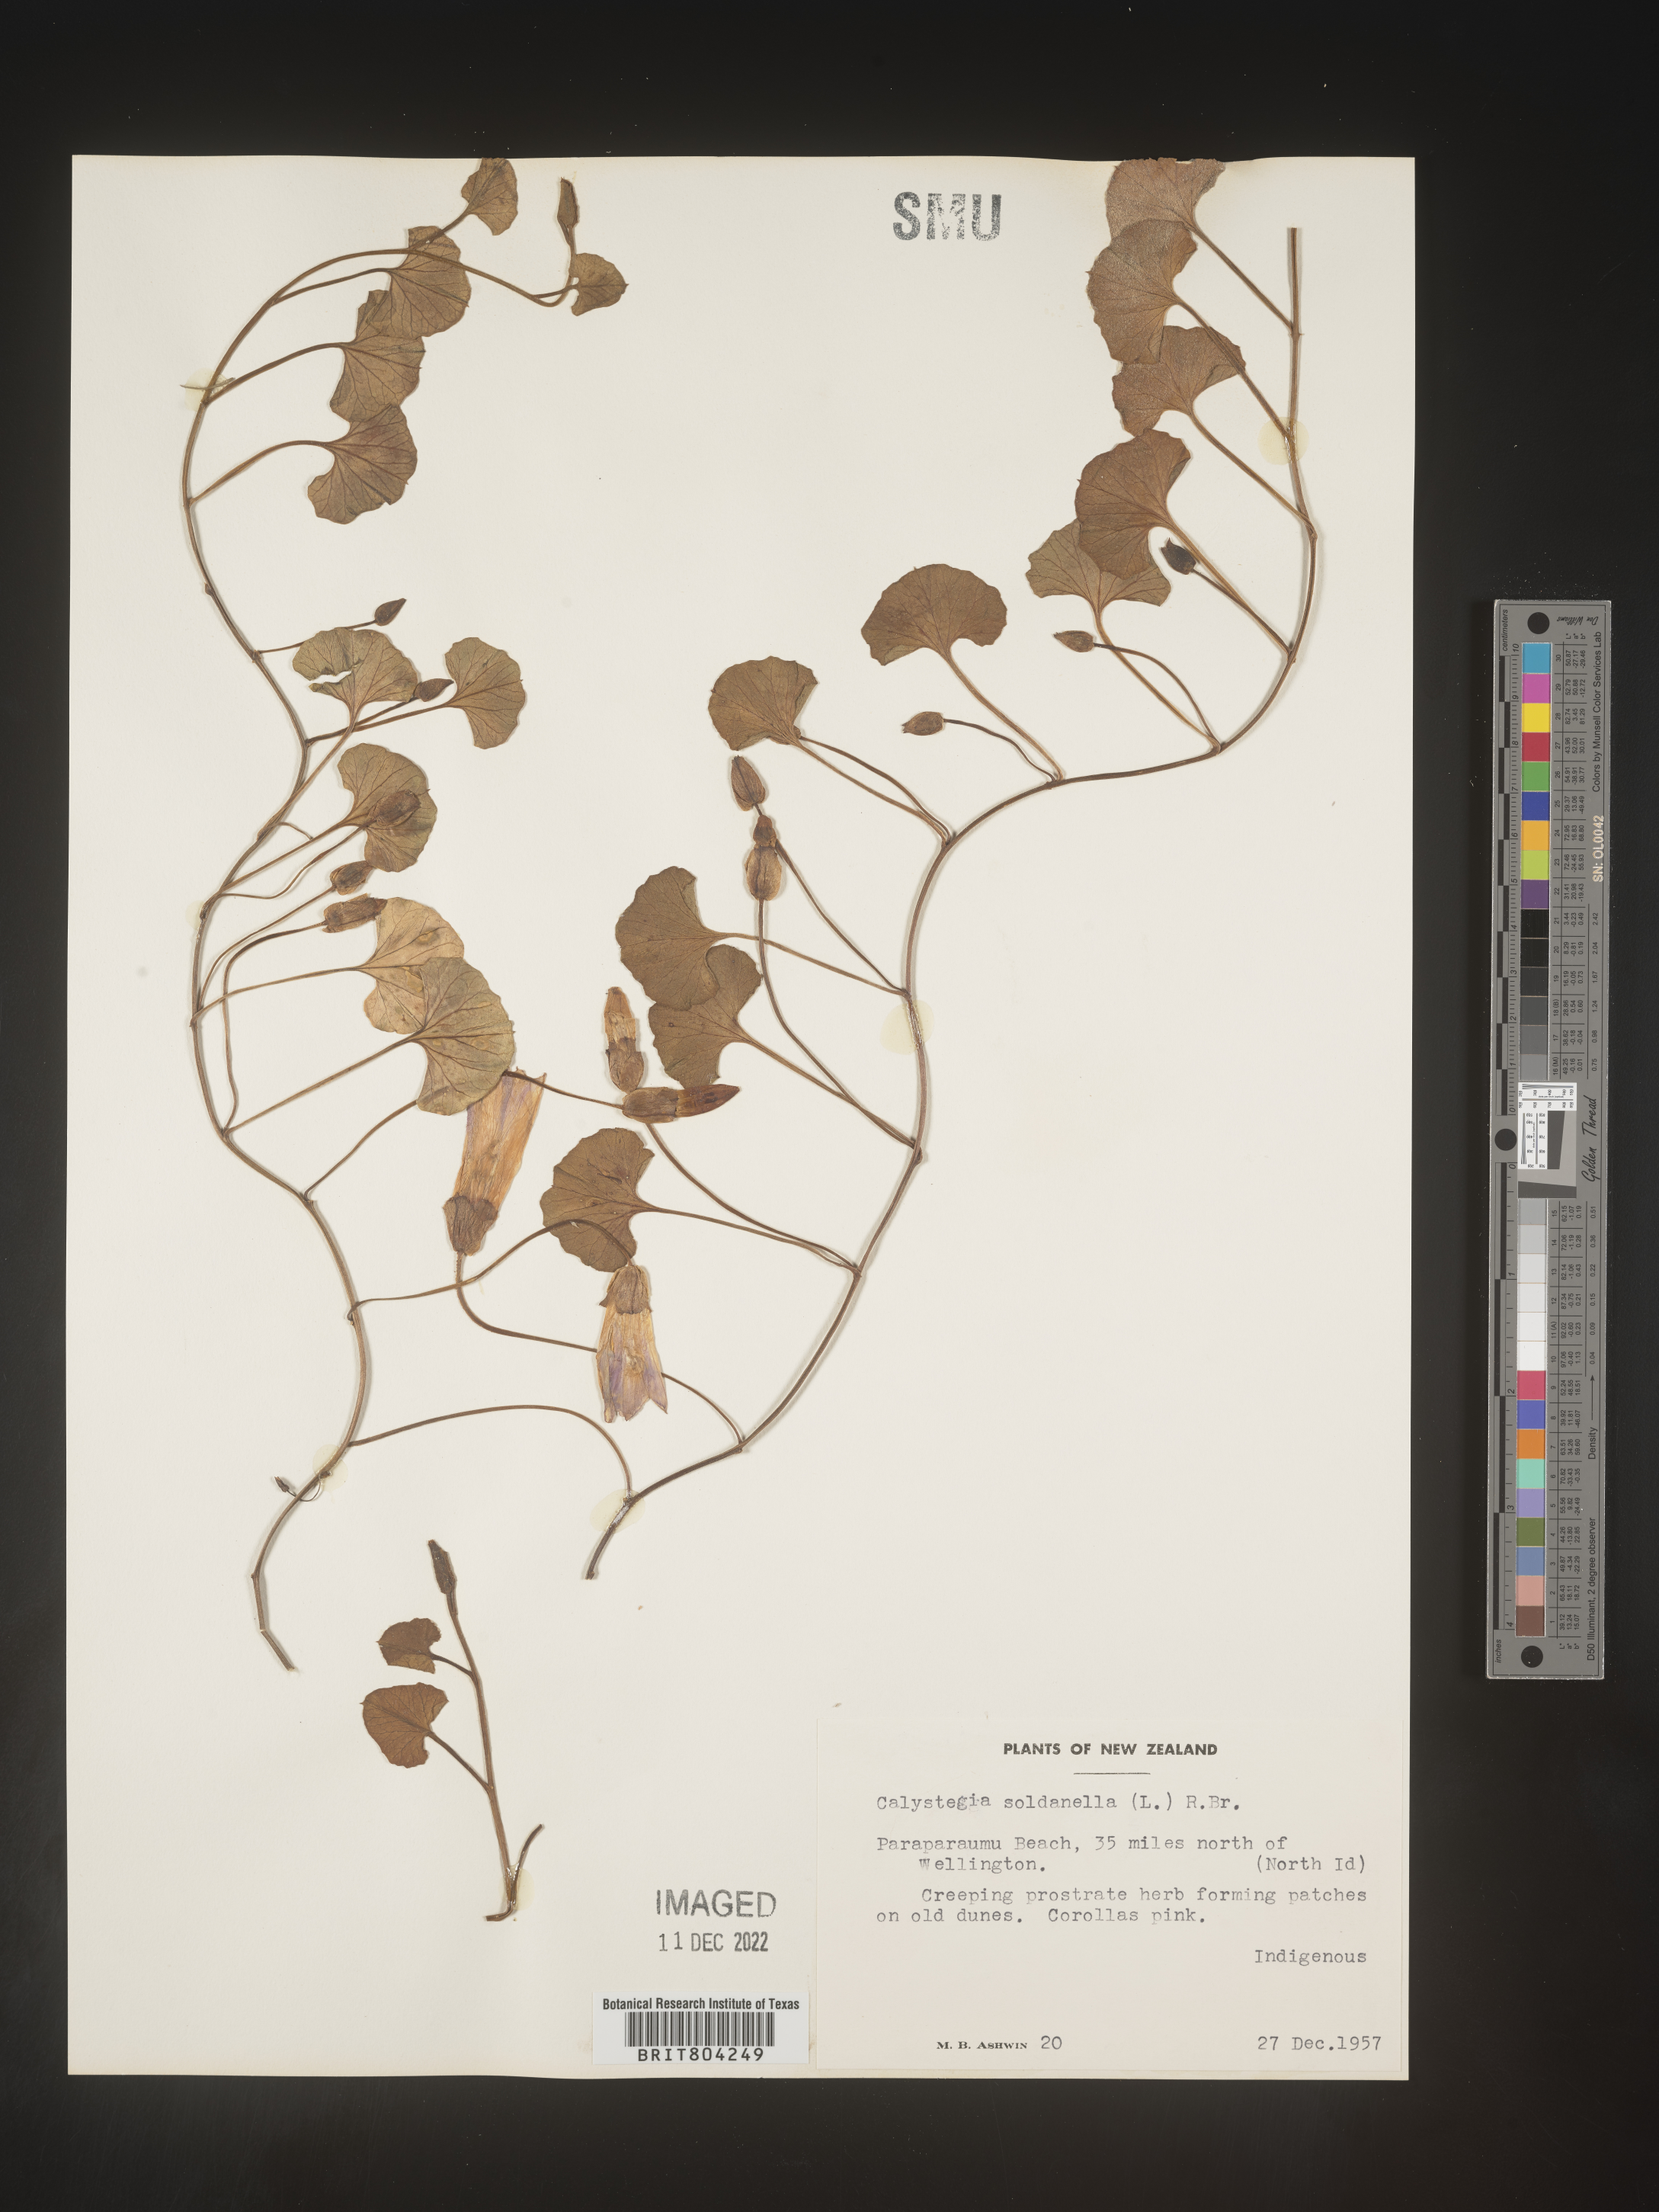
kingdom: Plantae
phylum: Tracheophyta
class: Magnoliopsida
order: Solanales
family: Convolvulaceae
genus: Calystegia
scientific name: Calystegia
